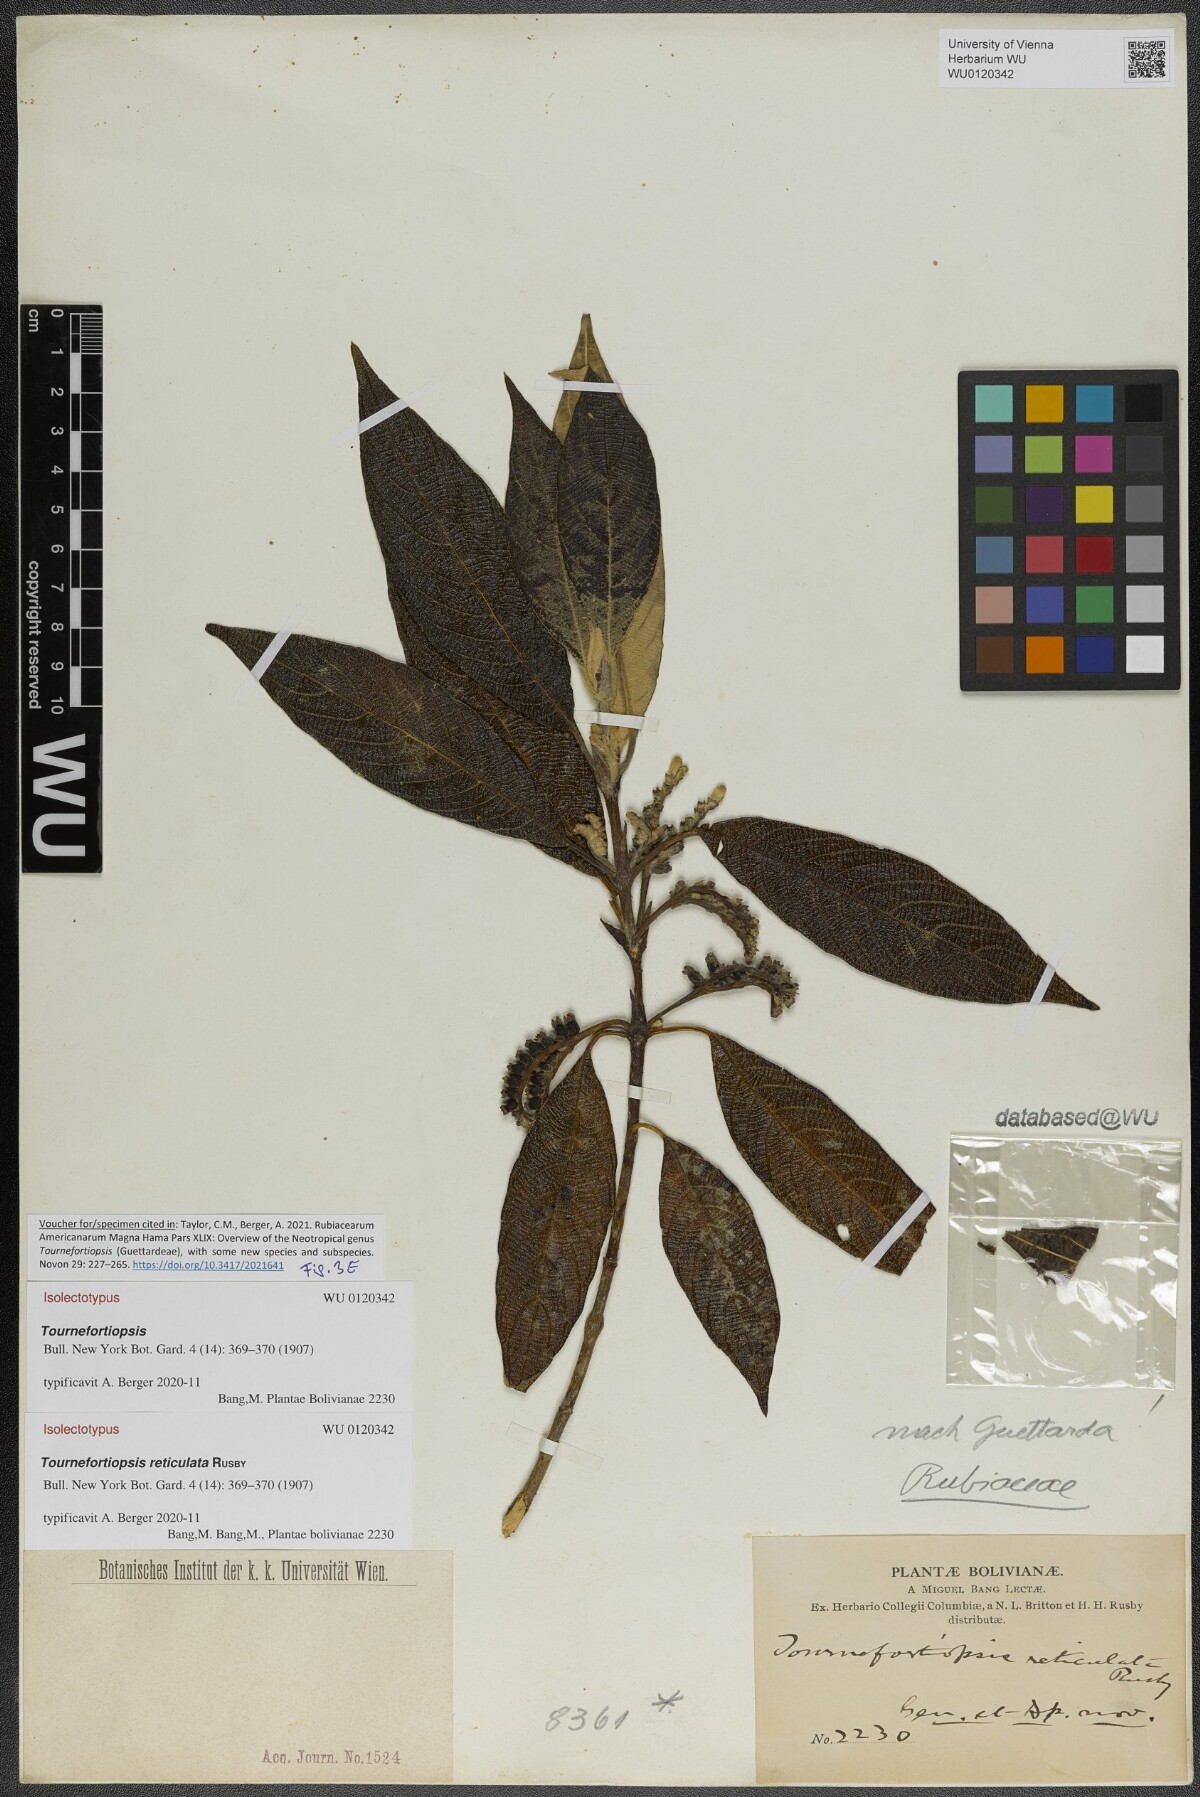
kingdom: Plantae
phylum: Tracheophyta
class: Magnoliopsida
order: Gentianales
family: Rubiaceae
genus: Tournefortiopsis
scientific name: Tournefortiopsis reticulata
